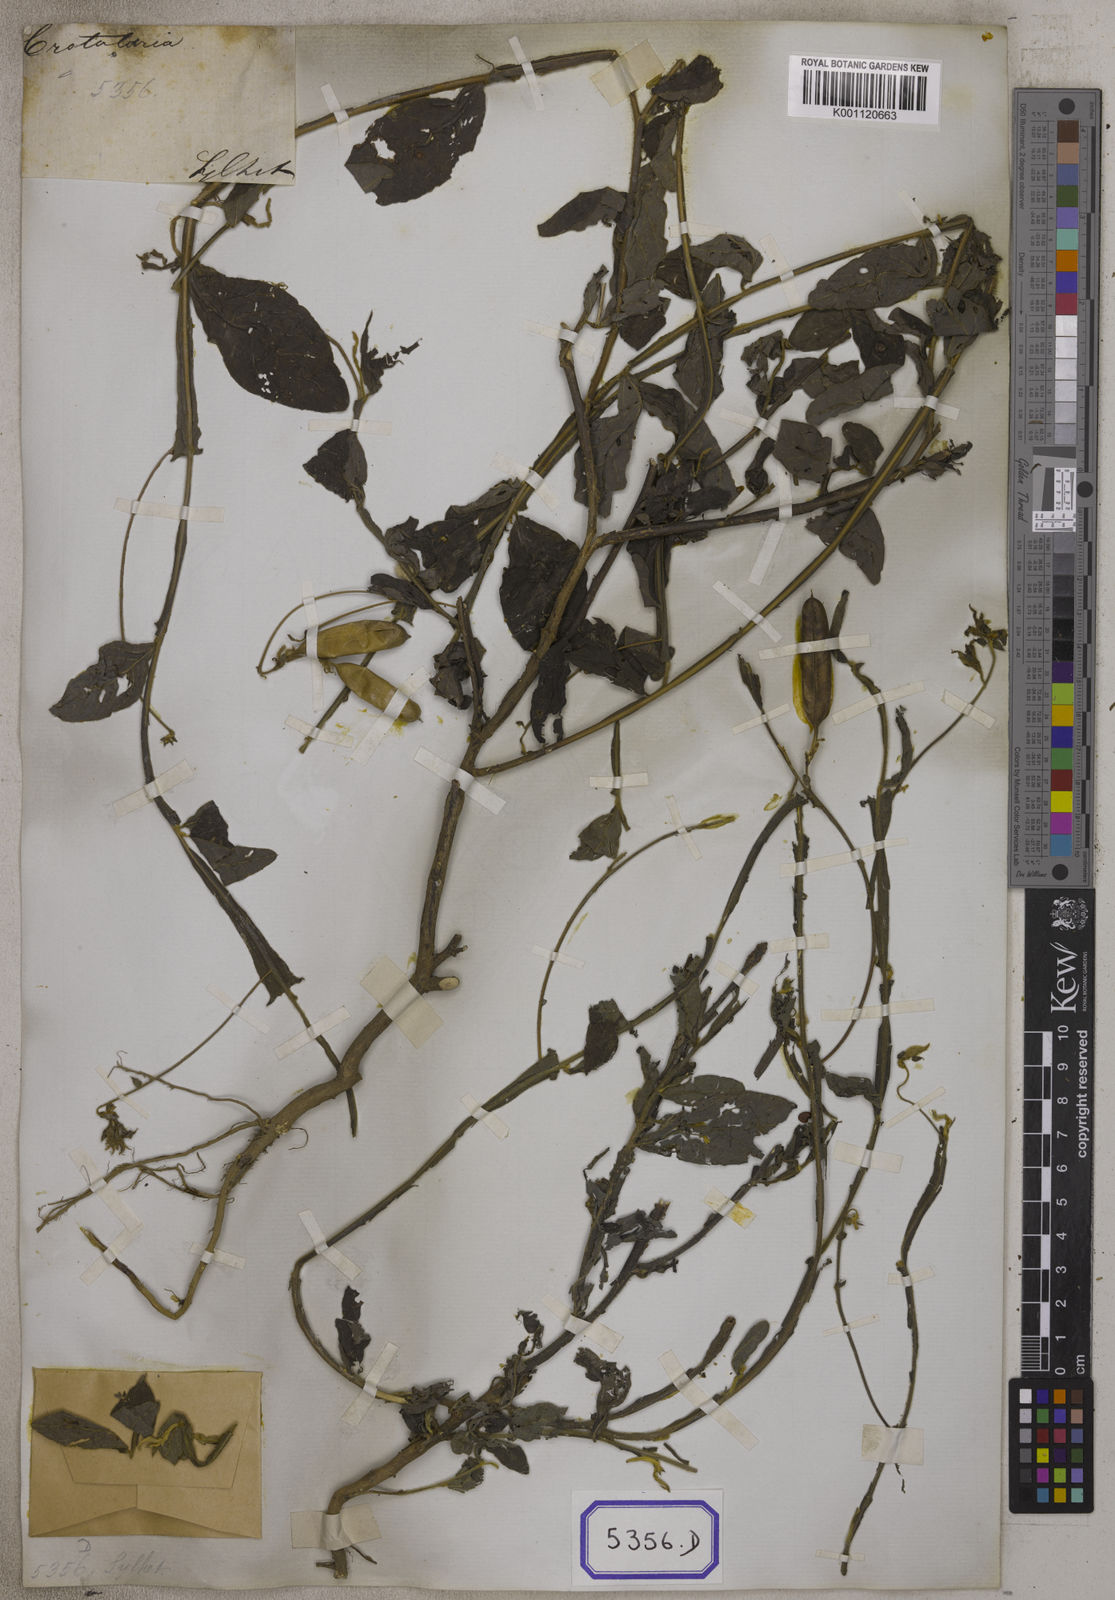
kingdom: Plantae
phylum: Tracheophyta
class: Magnoliopsida
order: Fabales
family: Fabaceae
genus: Crotalaria
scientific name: Crotalaria alata
